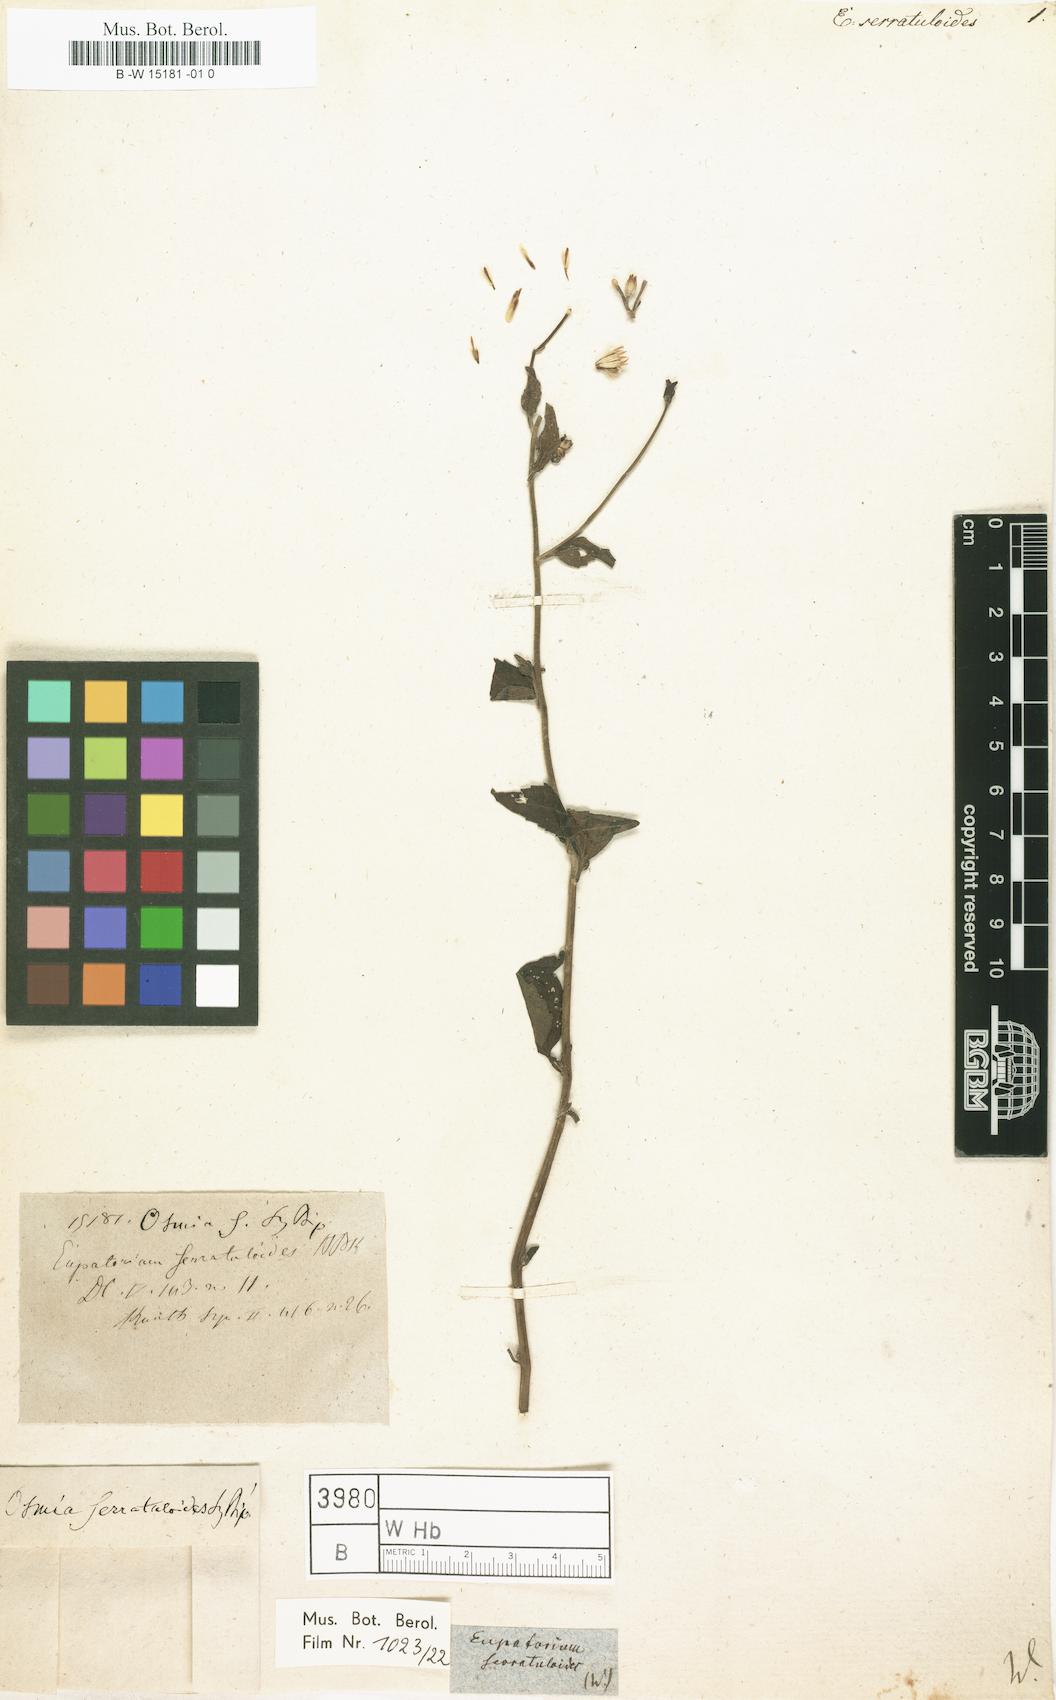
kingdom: Plantae
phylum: Tracheophyta
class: Magnoliopsida
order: Asterales
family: Asteraceae
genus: Chromolaena
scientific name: Chromolaena serratuloides
